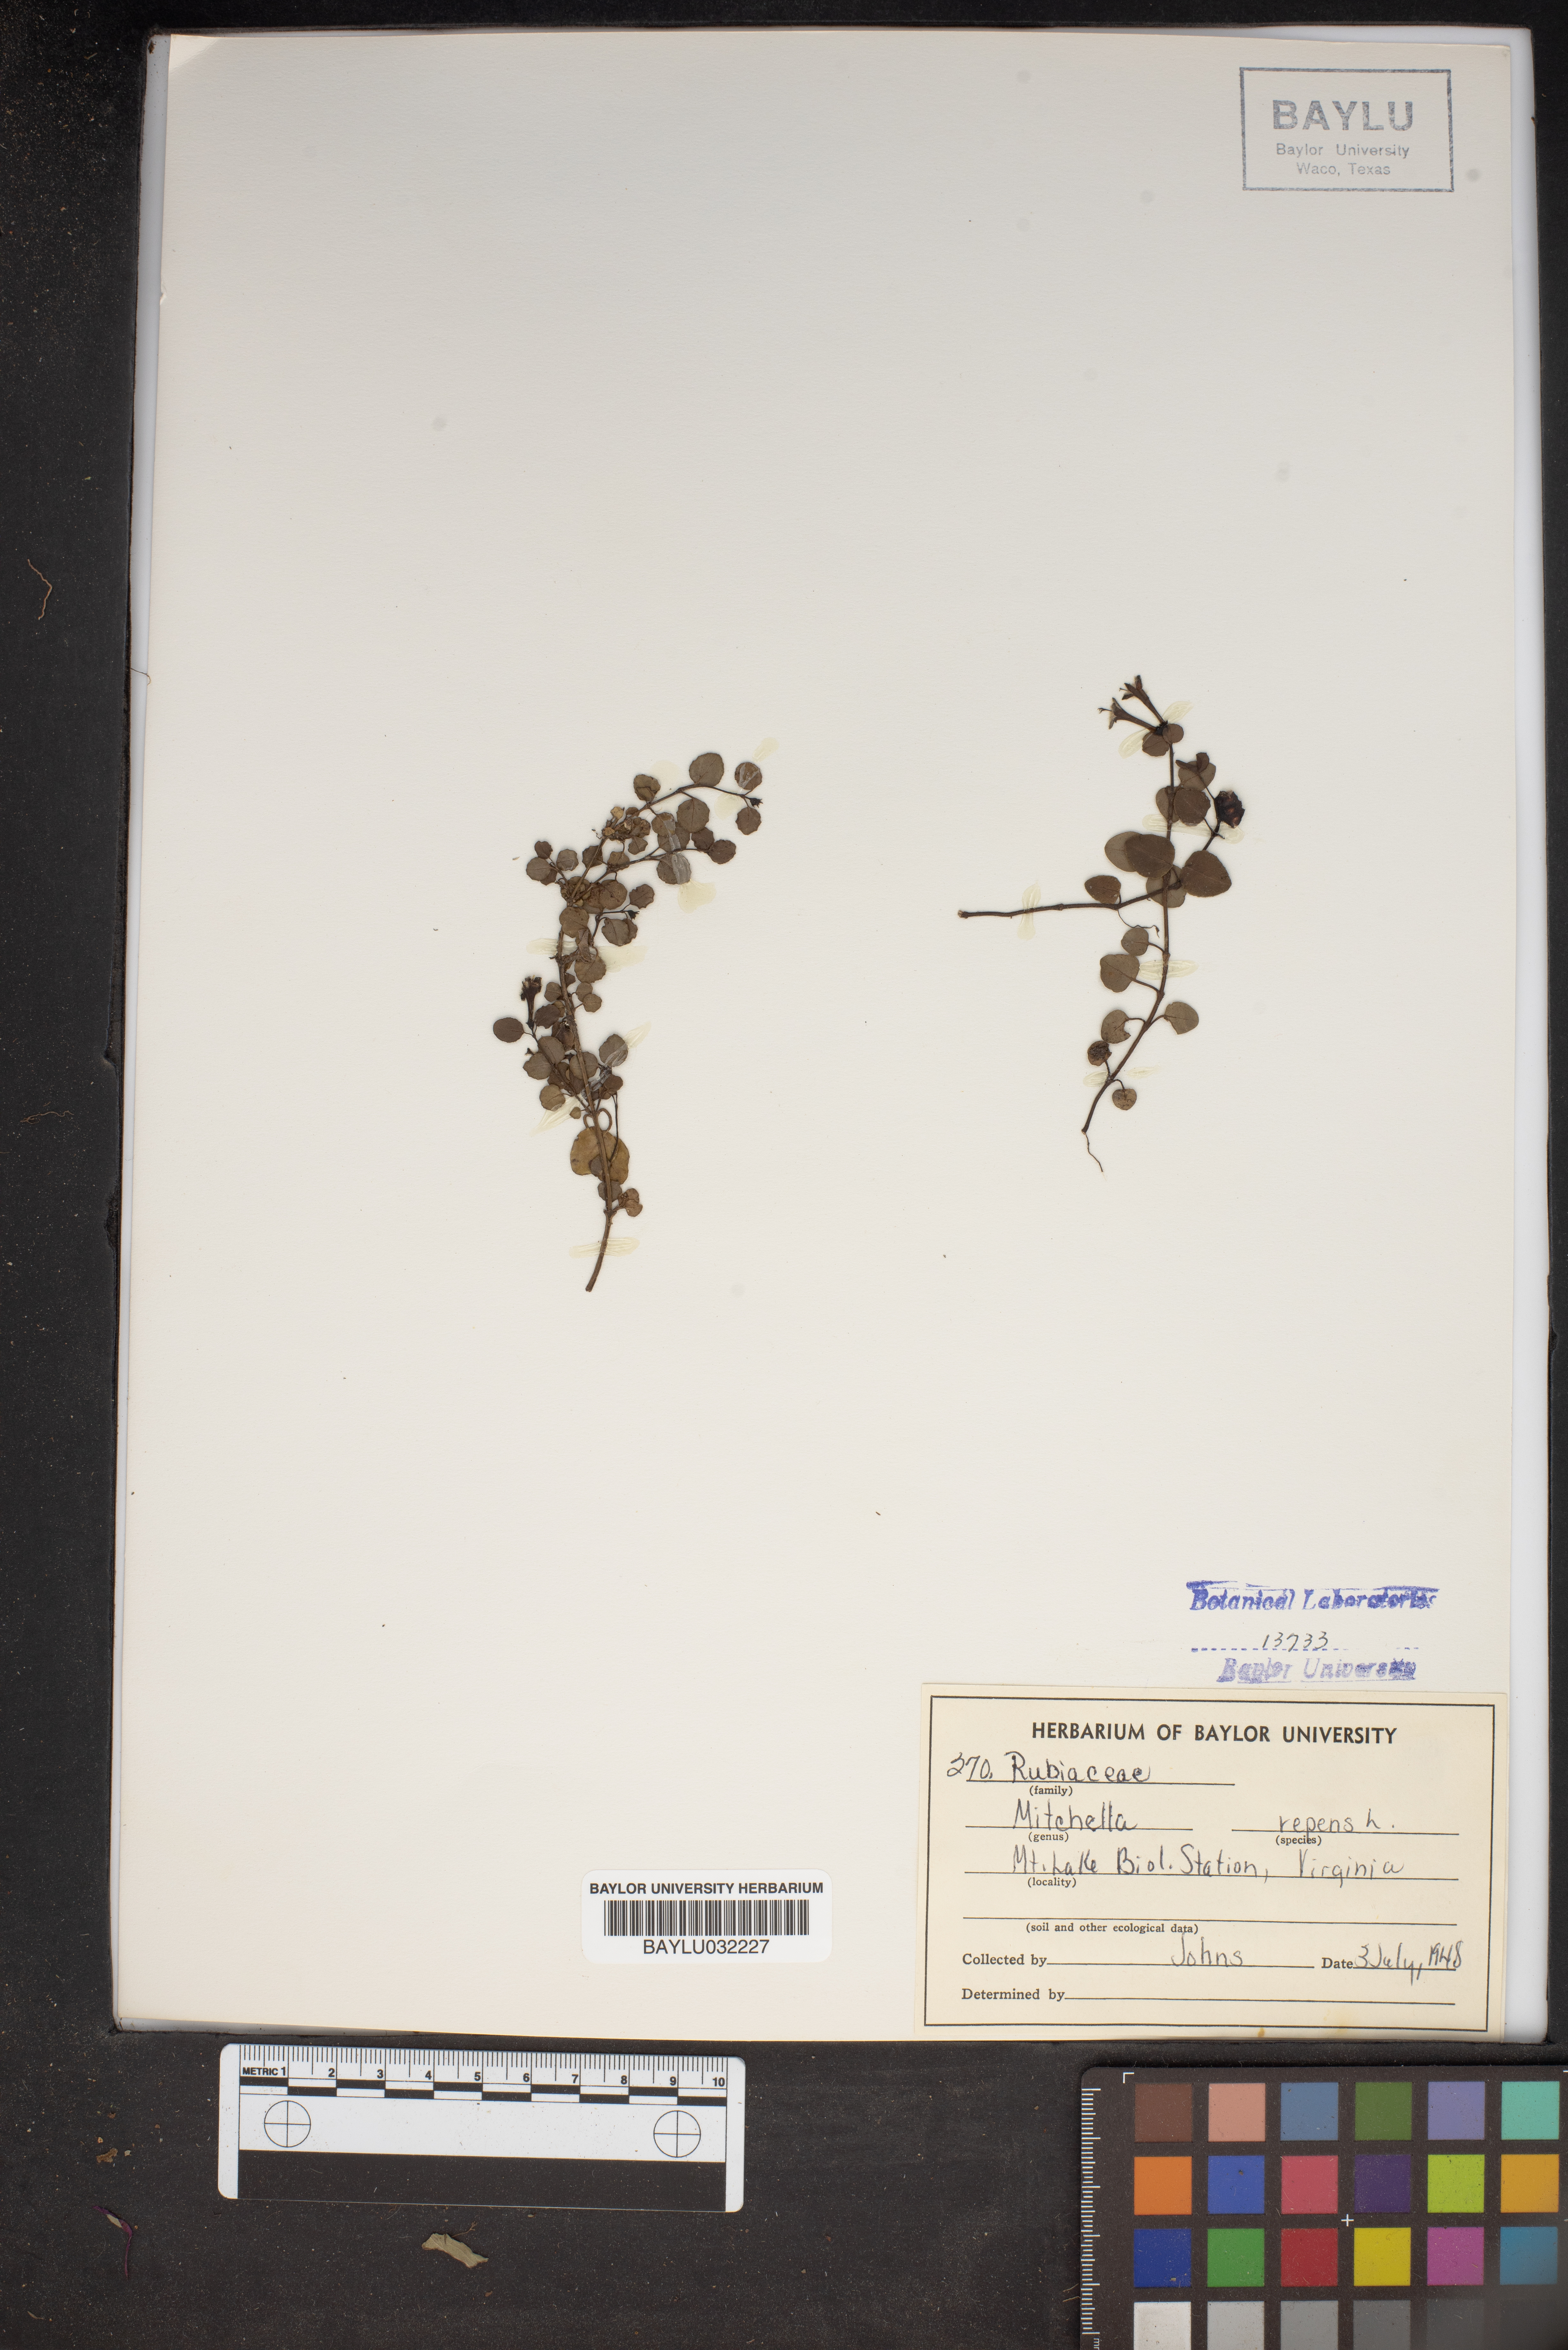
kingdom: Plantae
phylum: Tracheophyta
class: Magnoliopsida
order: Gentianales
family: Rubiaceae
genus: Mitchella
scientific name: Mitchella repens
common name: Partridge-berry
